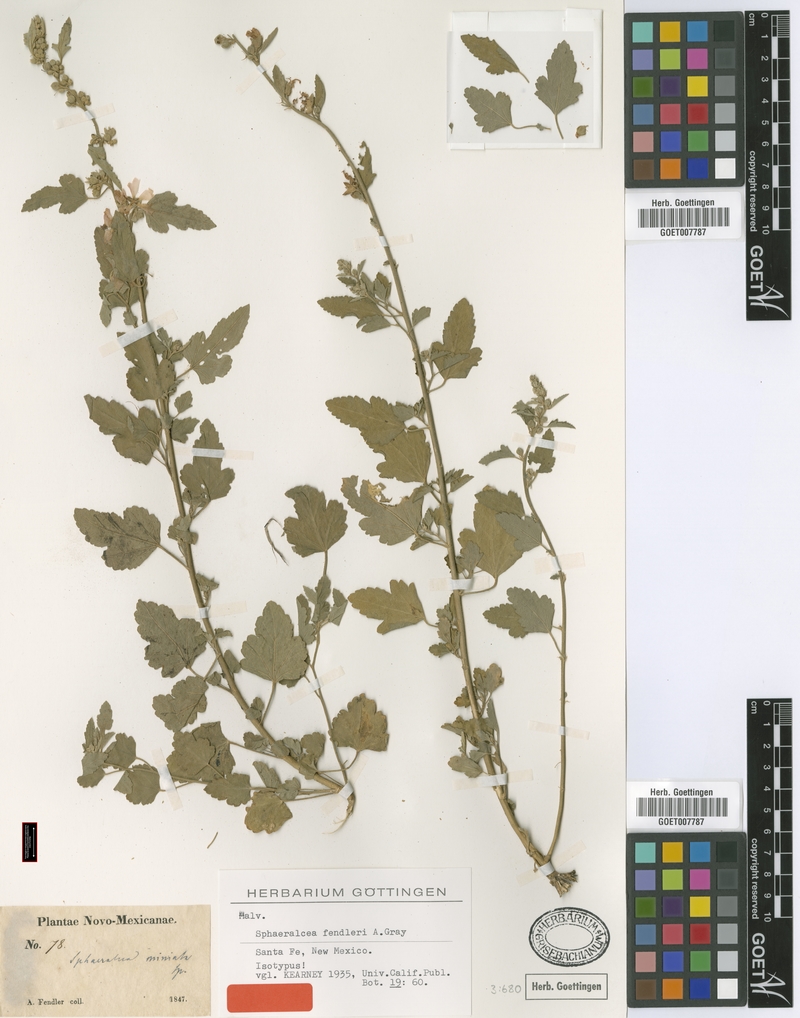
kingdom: Plantae
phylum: Tracheophyta
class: Magnoliopsida
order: Malvales
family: Malvaceae
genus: Sphaeralcea
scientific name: Sphaeralcea fendleri
